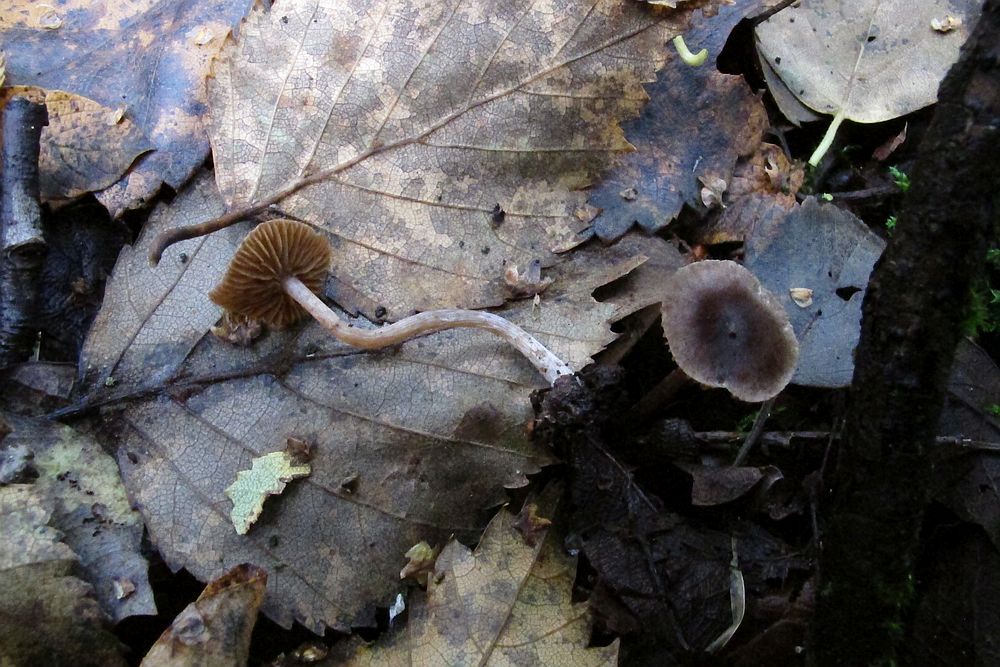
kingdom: Fungi
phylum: Basidiomycota
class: Agaricomycetes
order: Agaricales
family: Cortinariaceae
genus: Cortinarius
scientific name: Cortinarius
